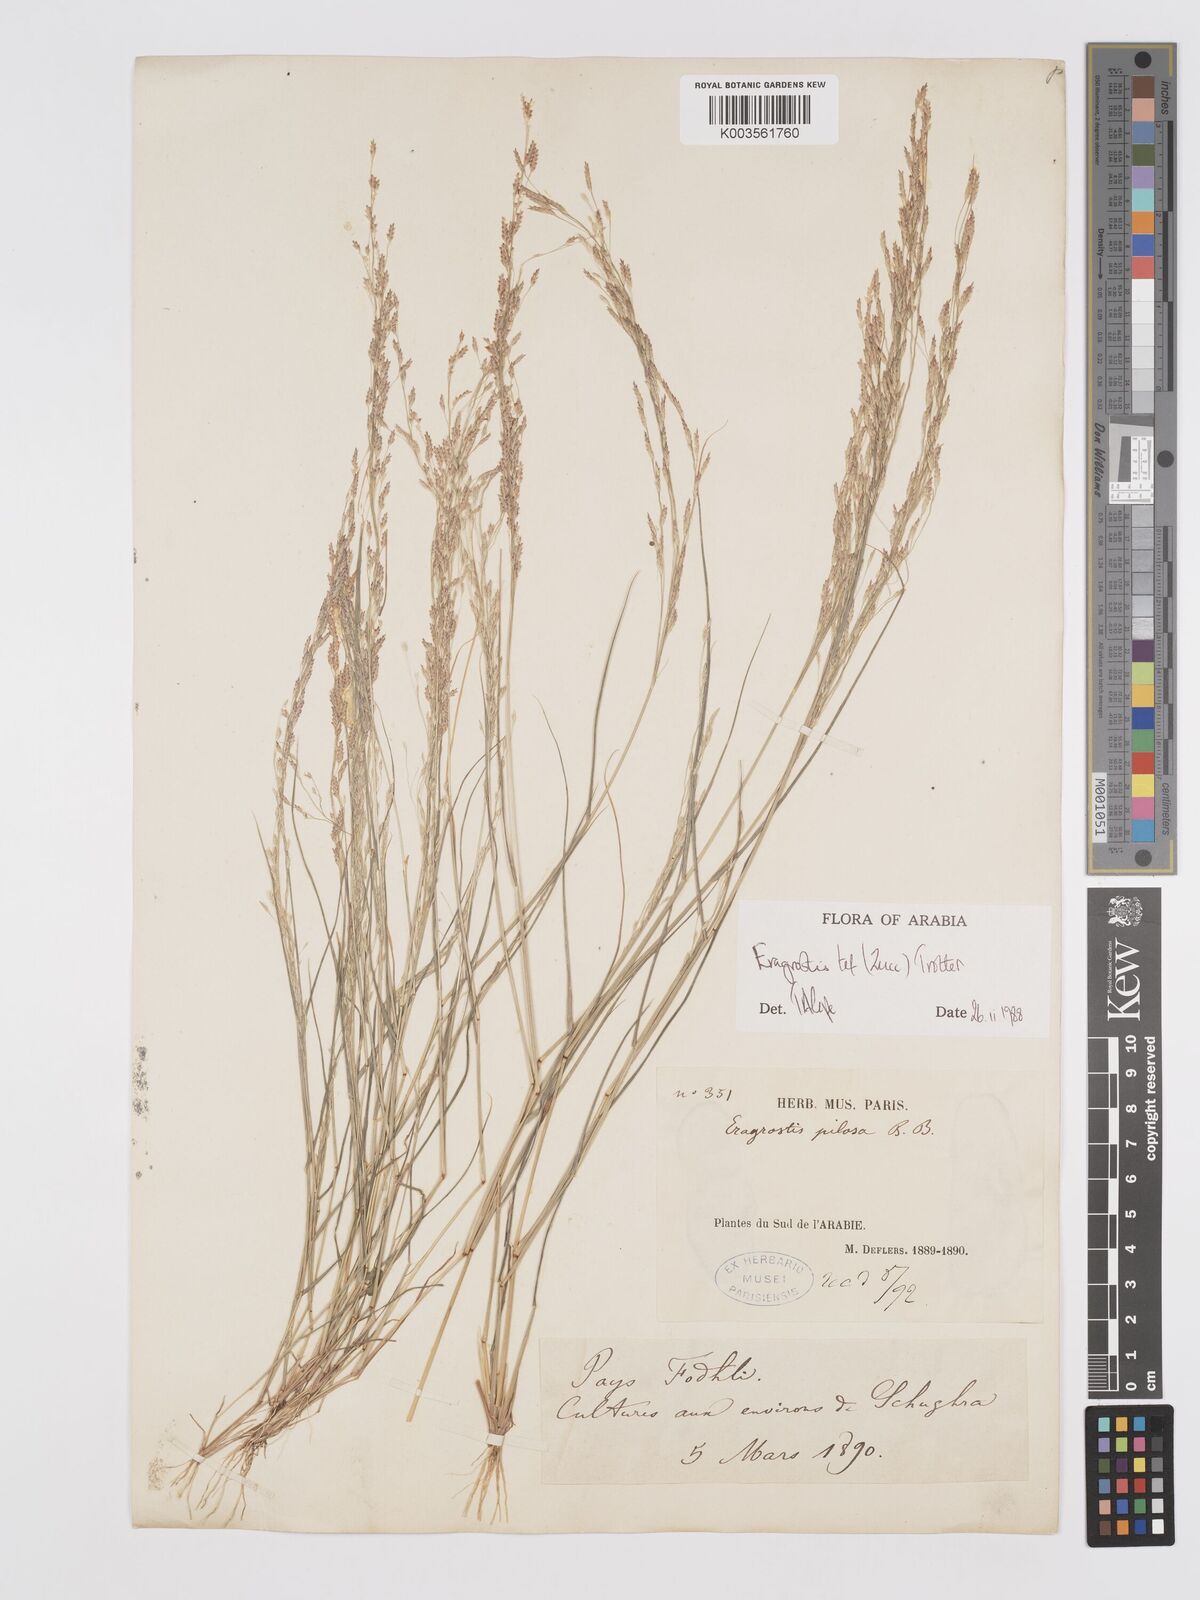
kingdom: Plantae
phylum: Tracheophyta
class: Liliopsida
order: Poales
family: Poaceae
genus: Eragrostis
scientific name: Eragrostis tef
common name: Teff
